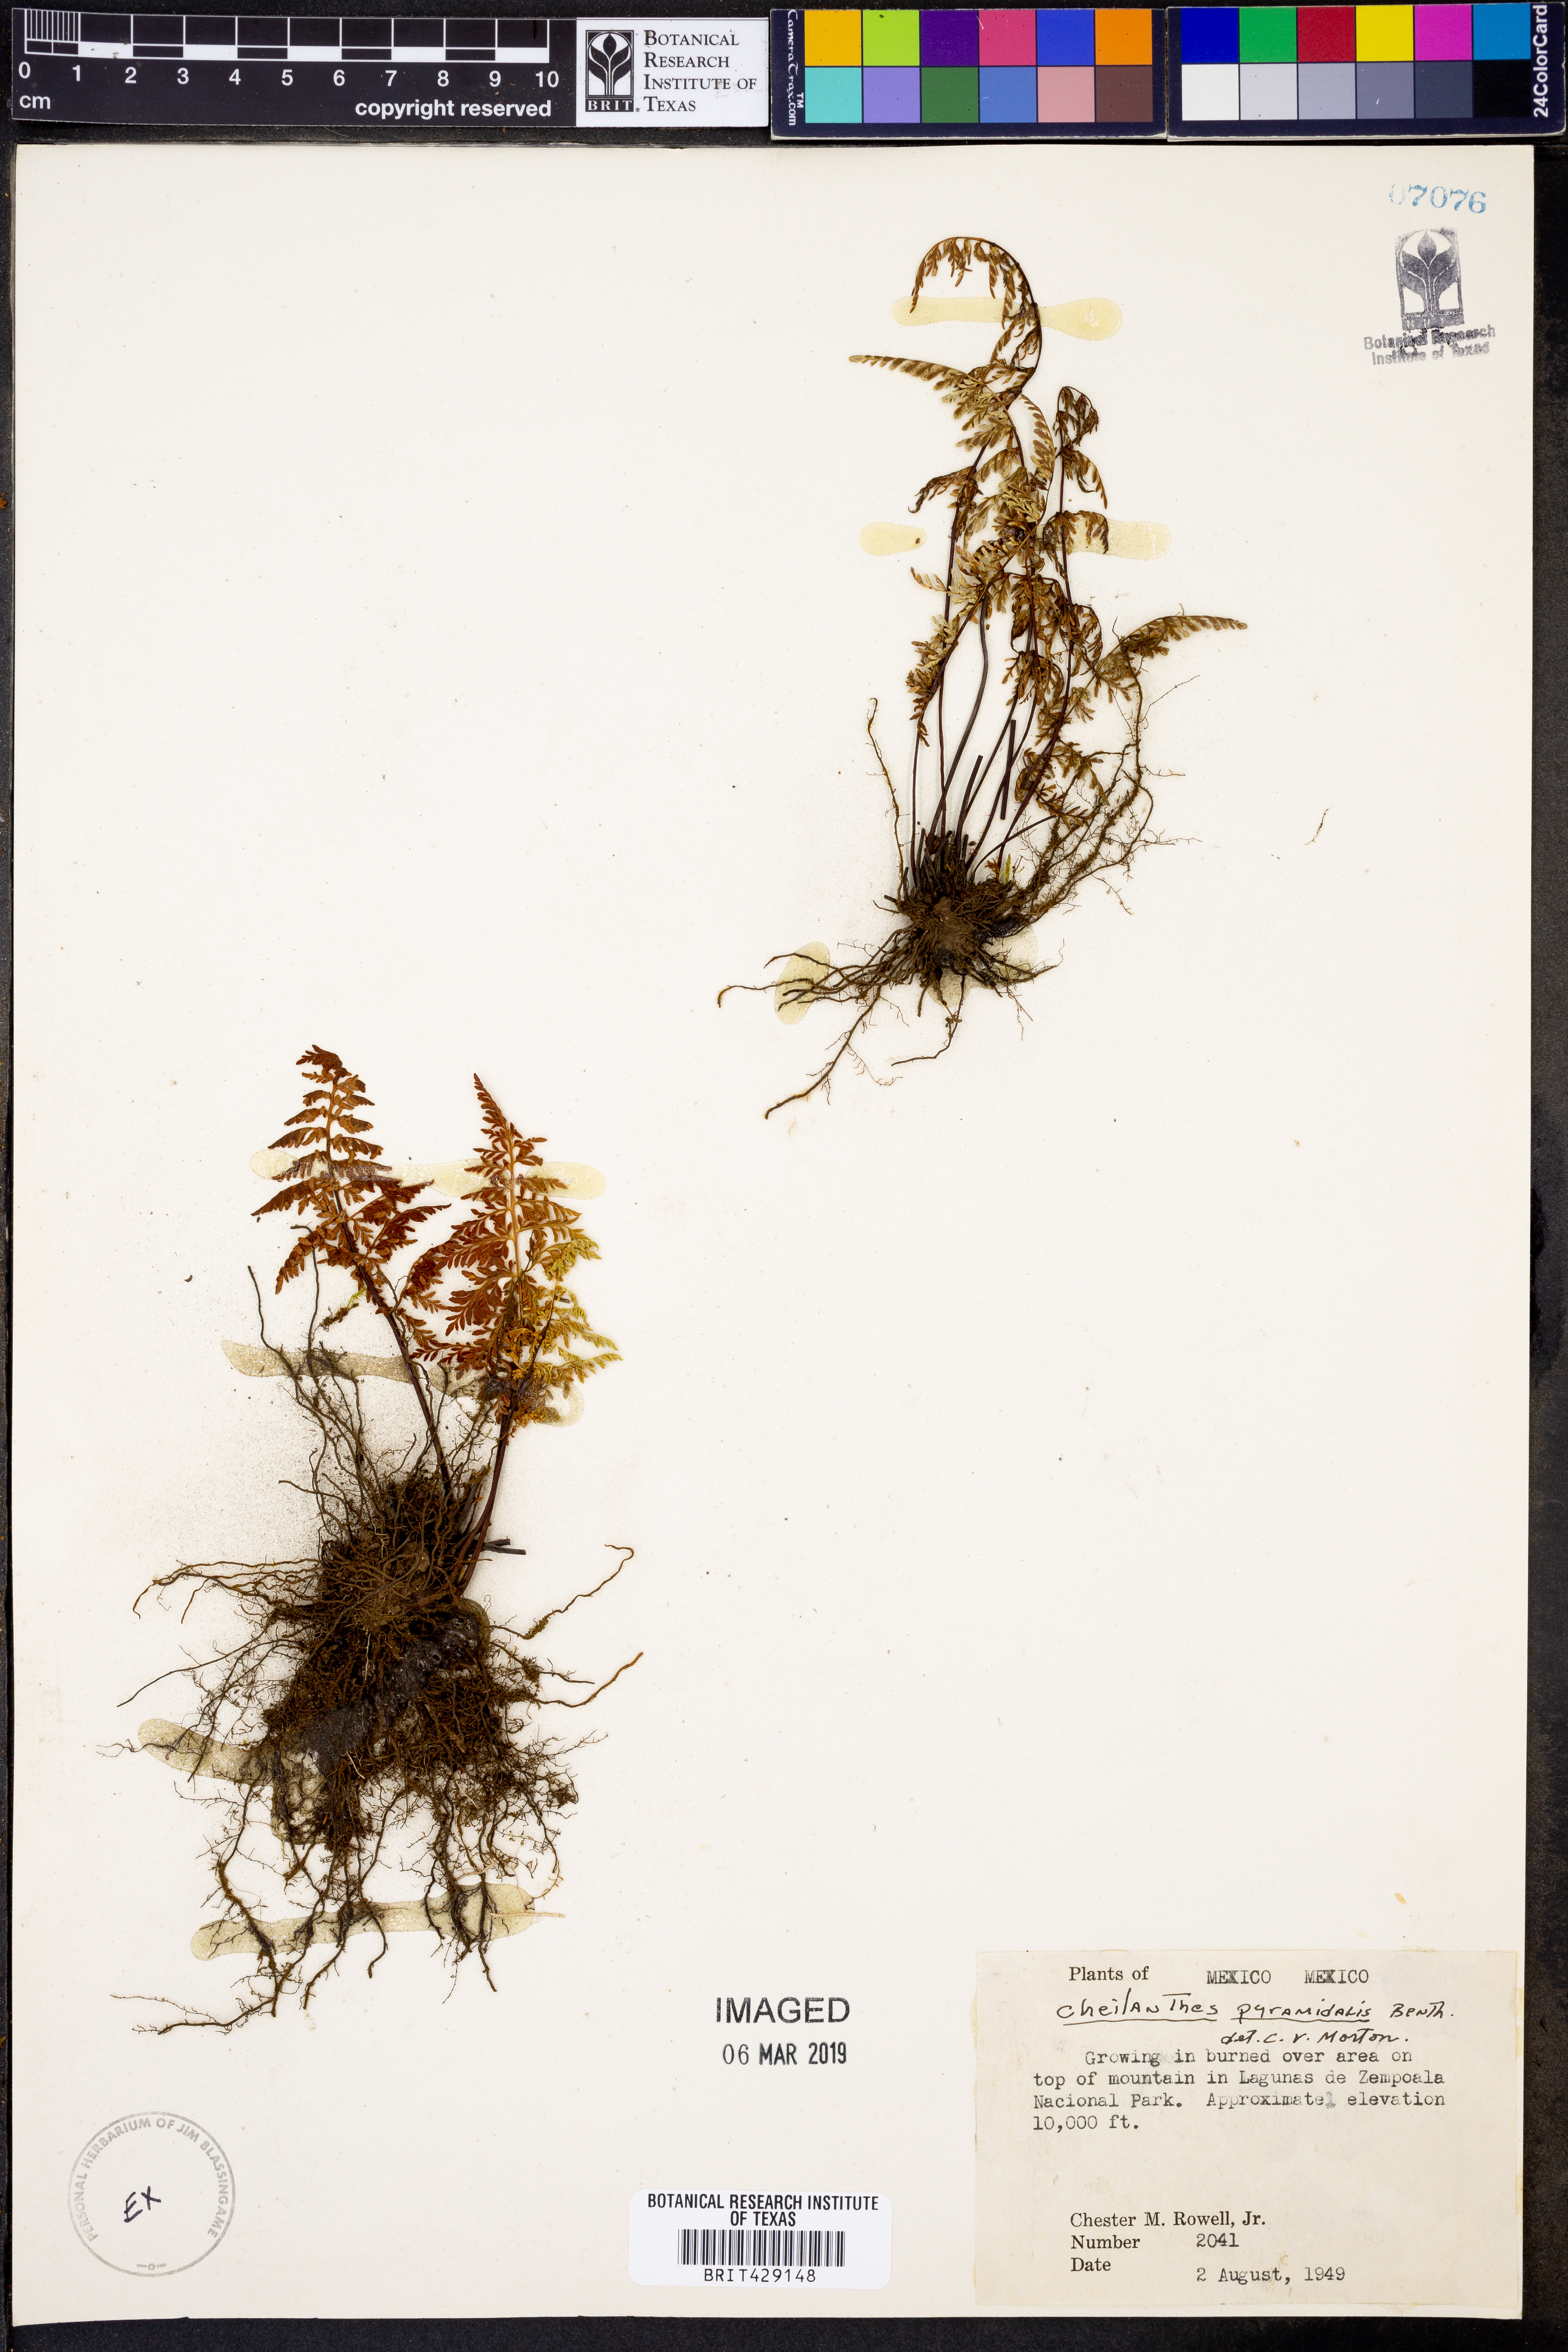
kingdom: Plantae
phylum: Tracheophyta
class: Polypodiopsida
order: Polypodiales
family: Pteridaceae
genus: Gaga
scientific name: Gaga hirsuta
